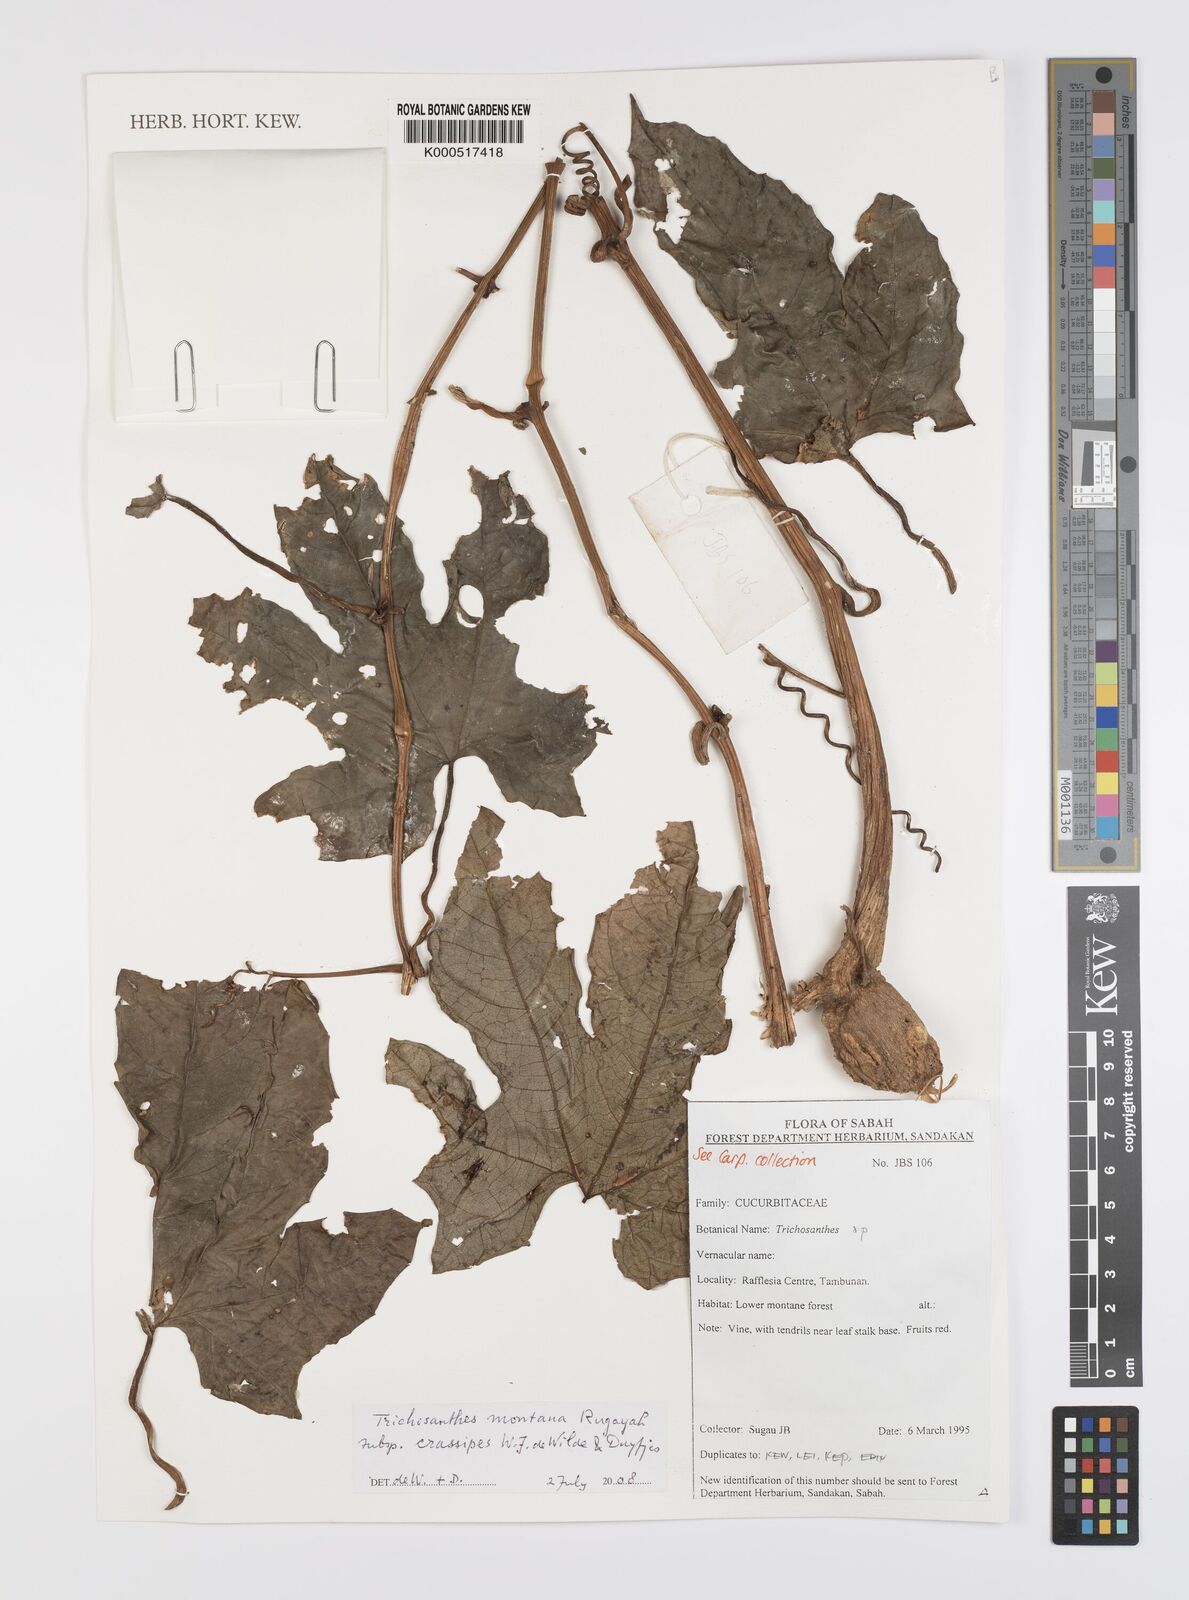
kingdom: Plantae
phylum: Tracheophyta
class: Magnoliopsida
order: Cucurbitales
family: Cucurbitaceae
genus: Trichosanthes
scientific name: Trichosanthes montana
